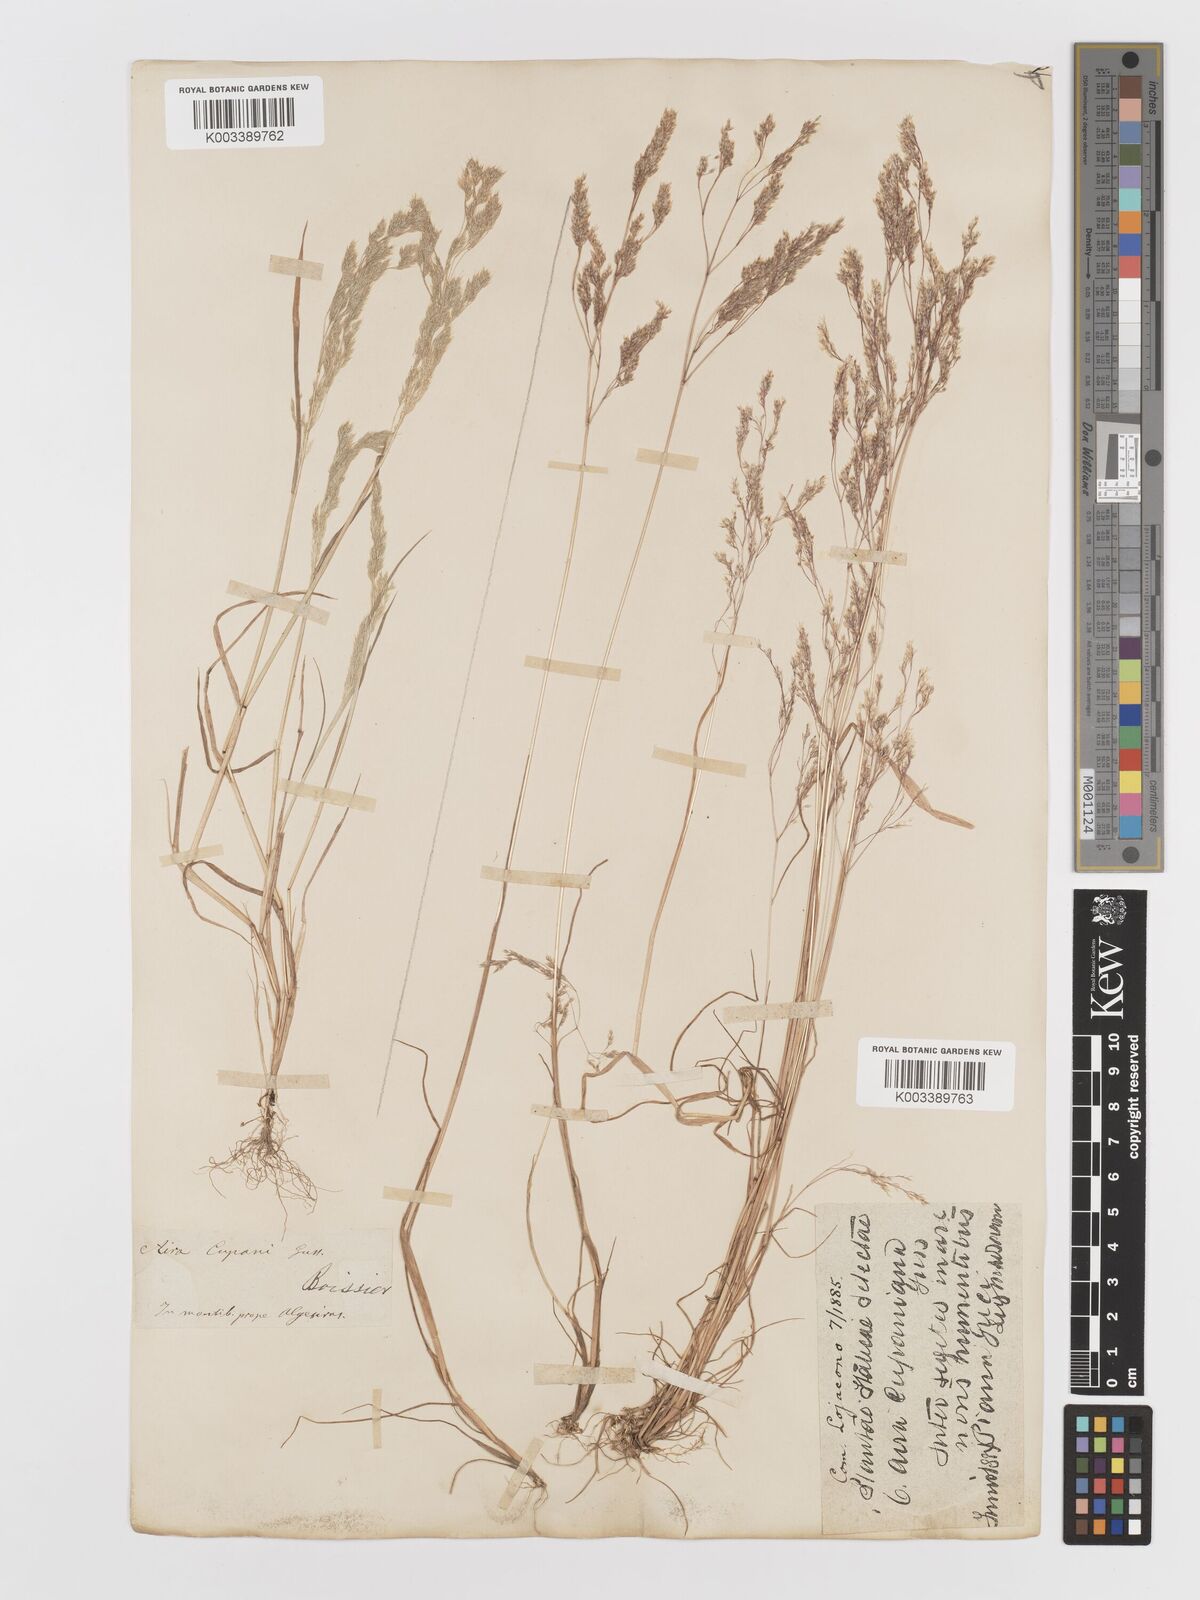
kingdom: Plantae
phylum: Tracheophyta
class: Liliopsida
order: Poales
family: Poaceae
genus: Aira
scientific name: Aira cupaniana
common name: Silver hairgrass
